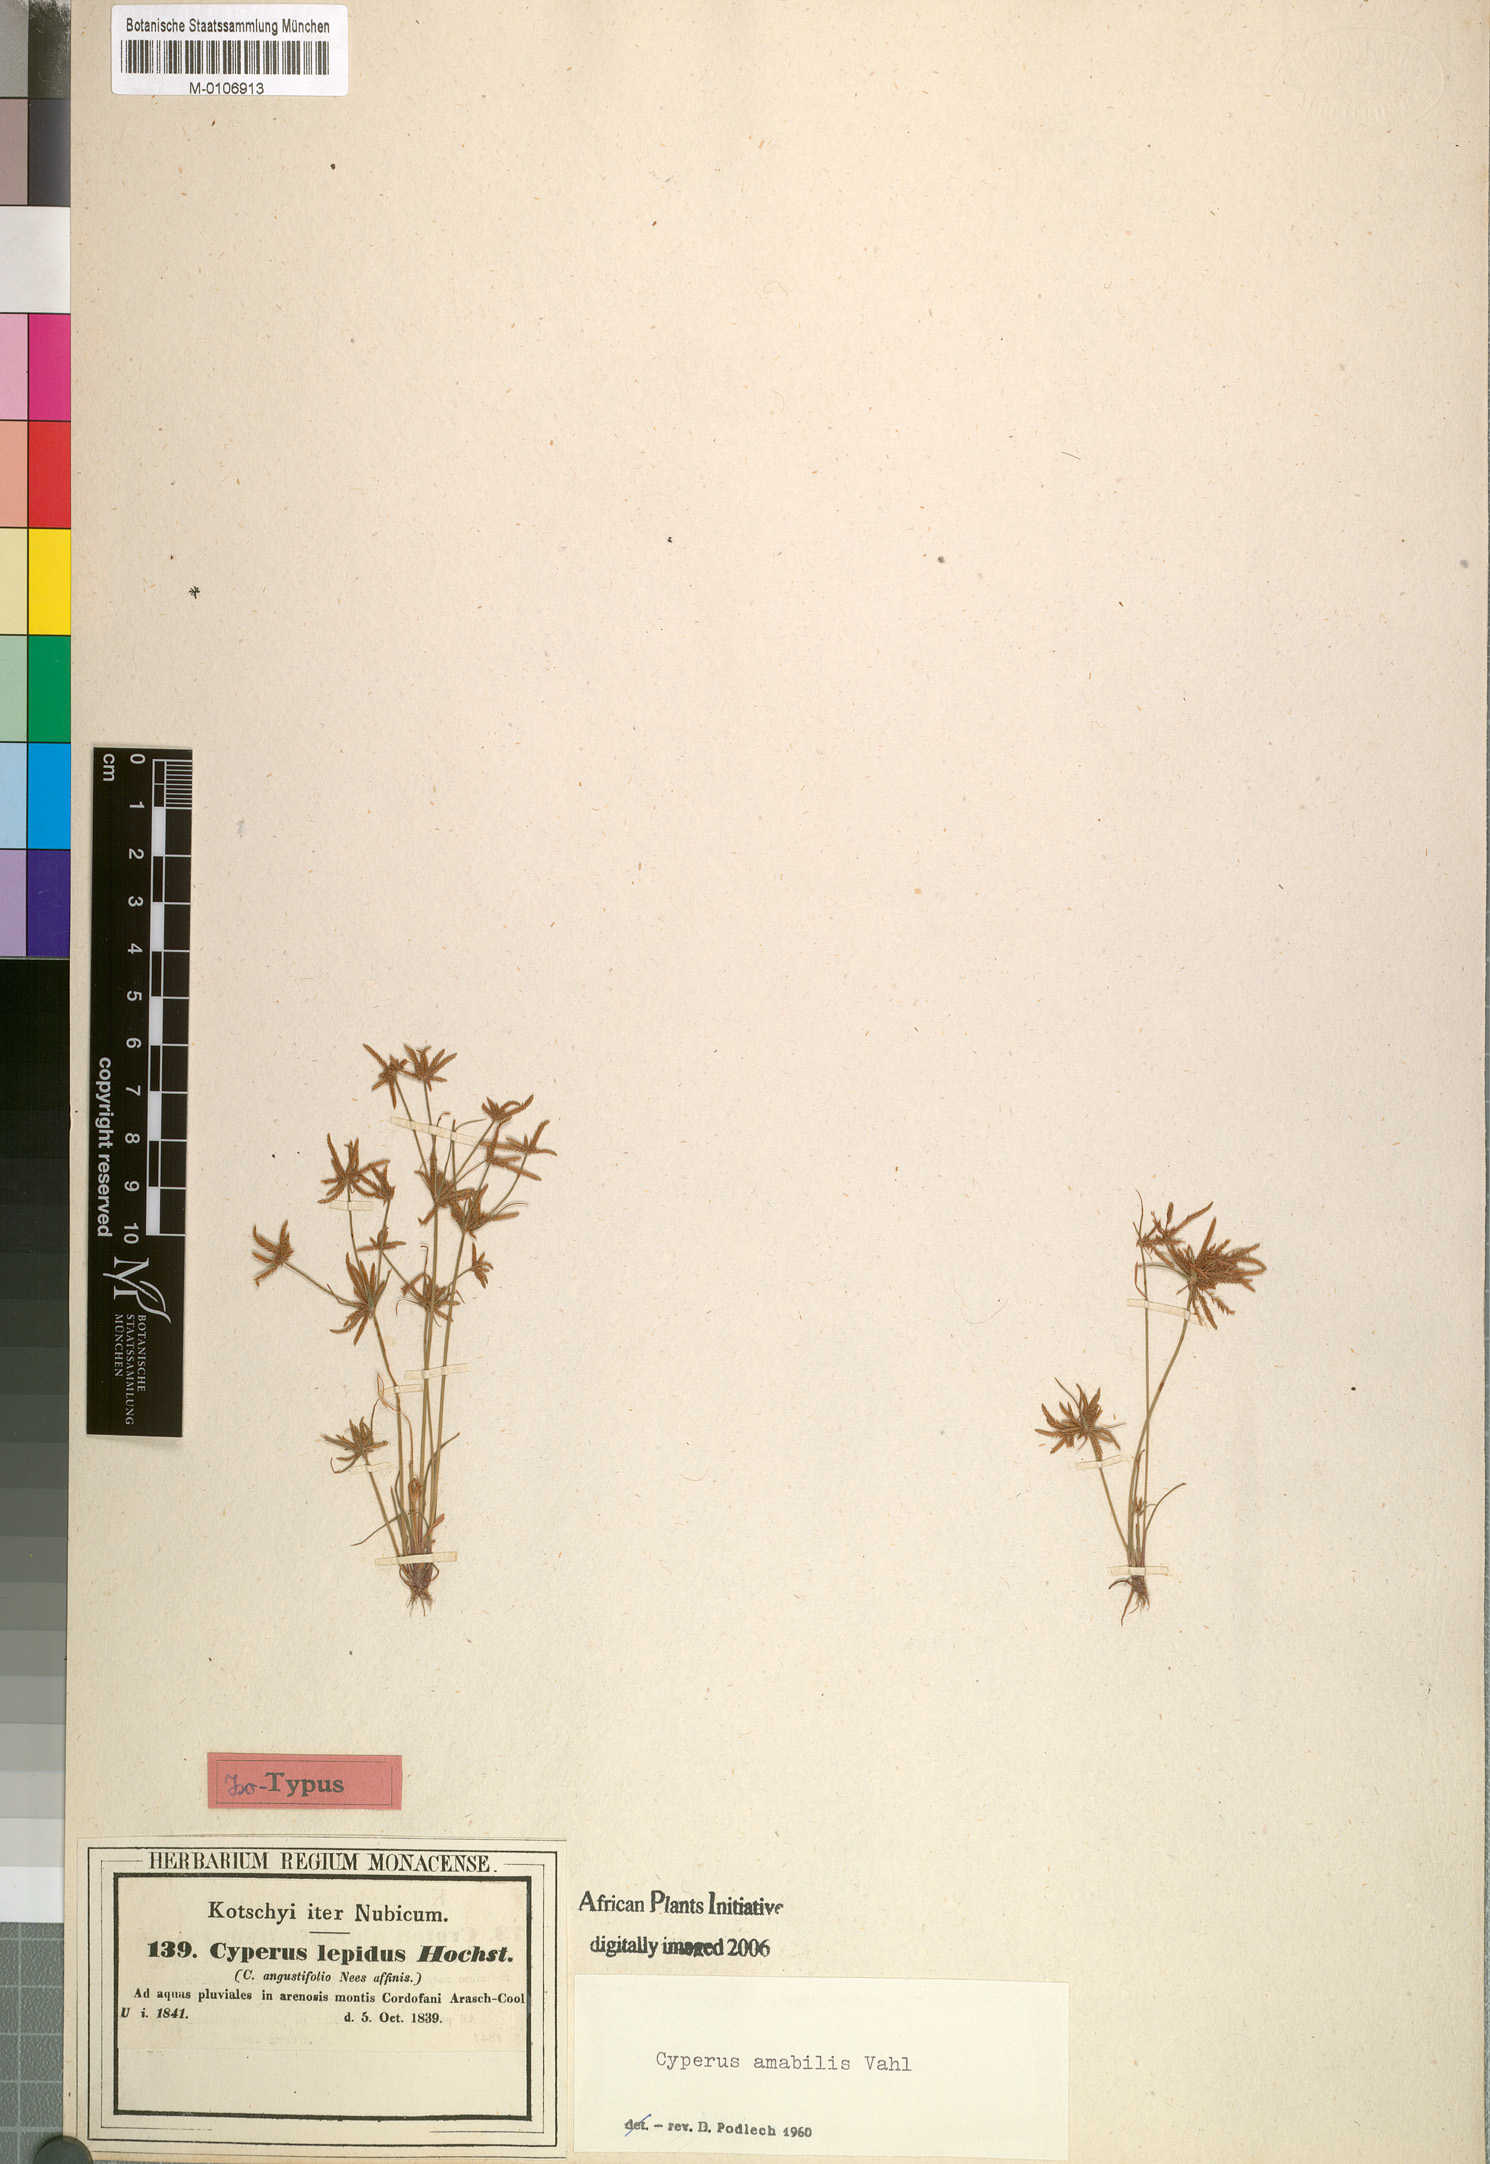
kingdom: Plantae
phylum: Tracheophyta
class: Liliopsida
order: Poales
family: Cyperaceae
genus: Cyperus
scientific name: Cyperus amabilis
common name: Foothill flat sedge
